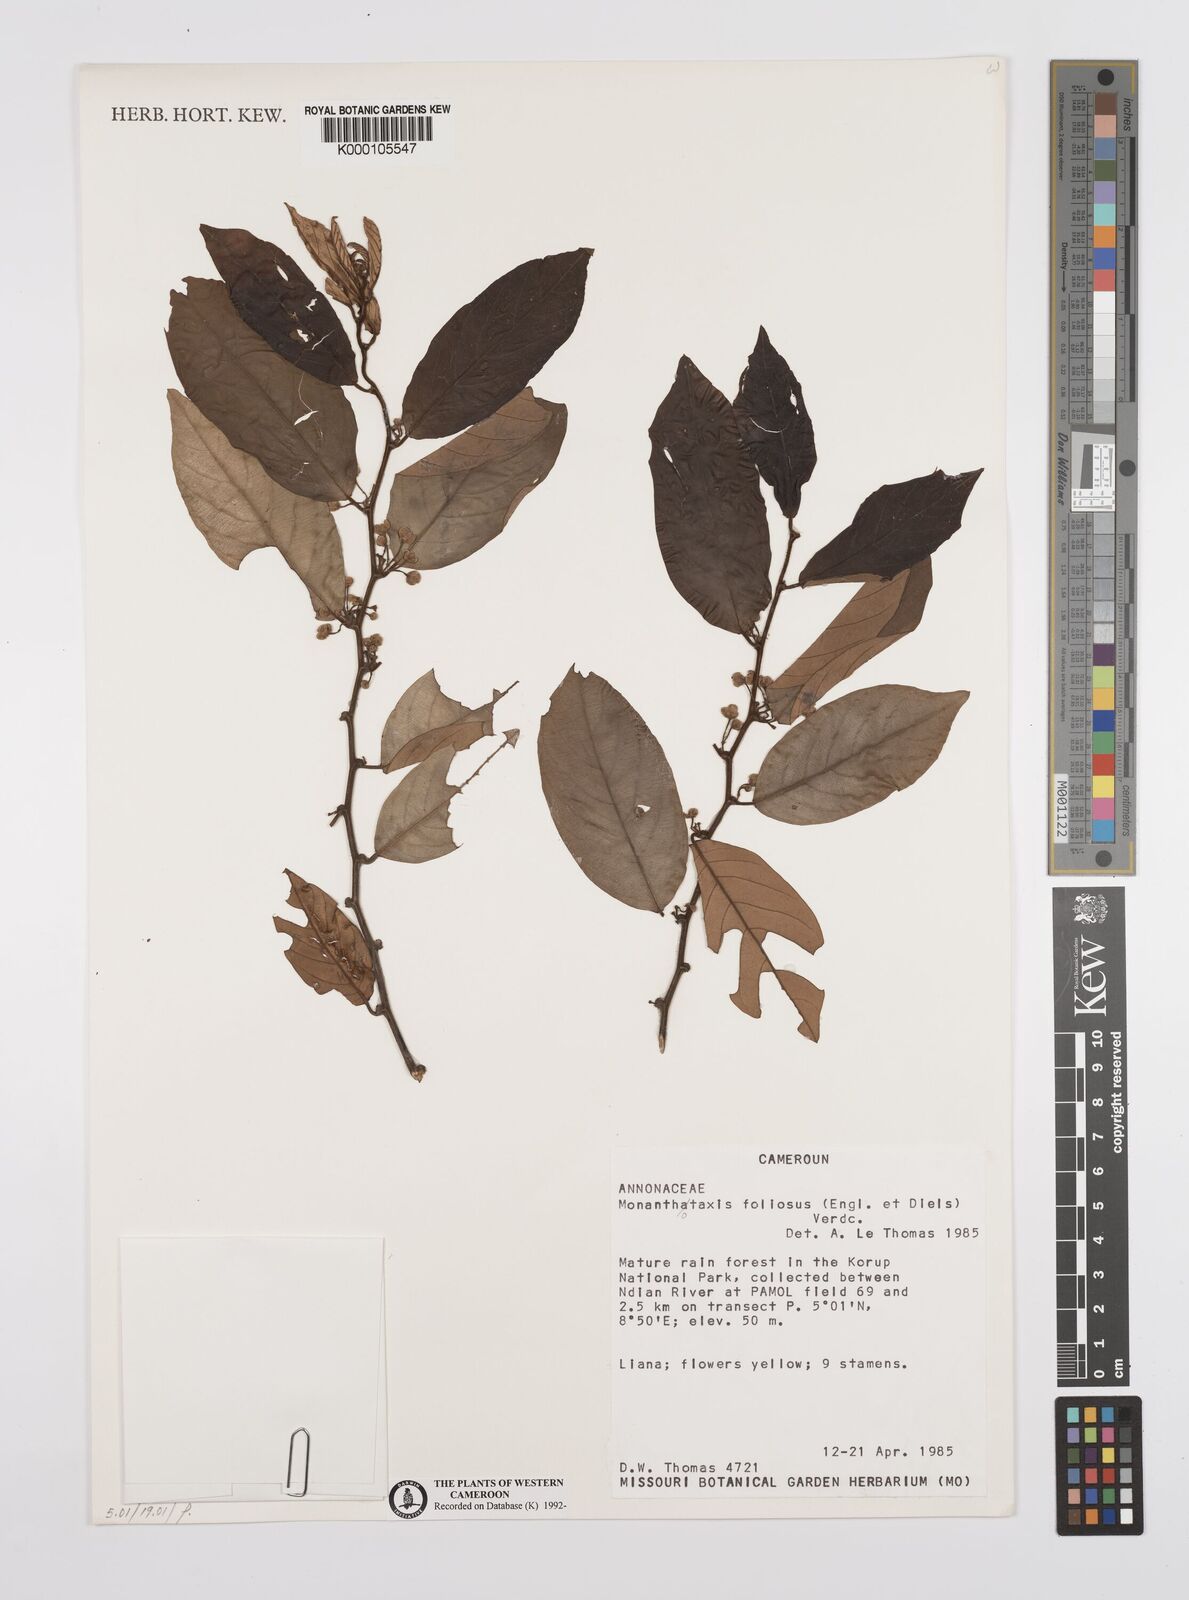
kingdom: Plantae
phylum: Tracheophyta
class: Magnoliopsida
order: Magnoliales
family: Annonaceae
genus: Monanthotaxis
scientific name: Monanthotaxis foliosa
